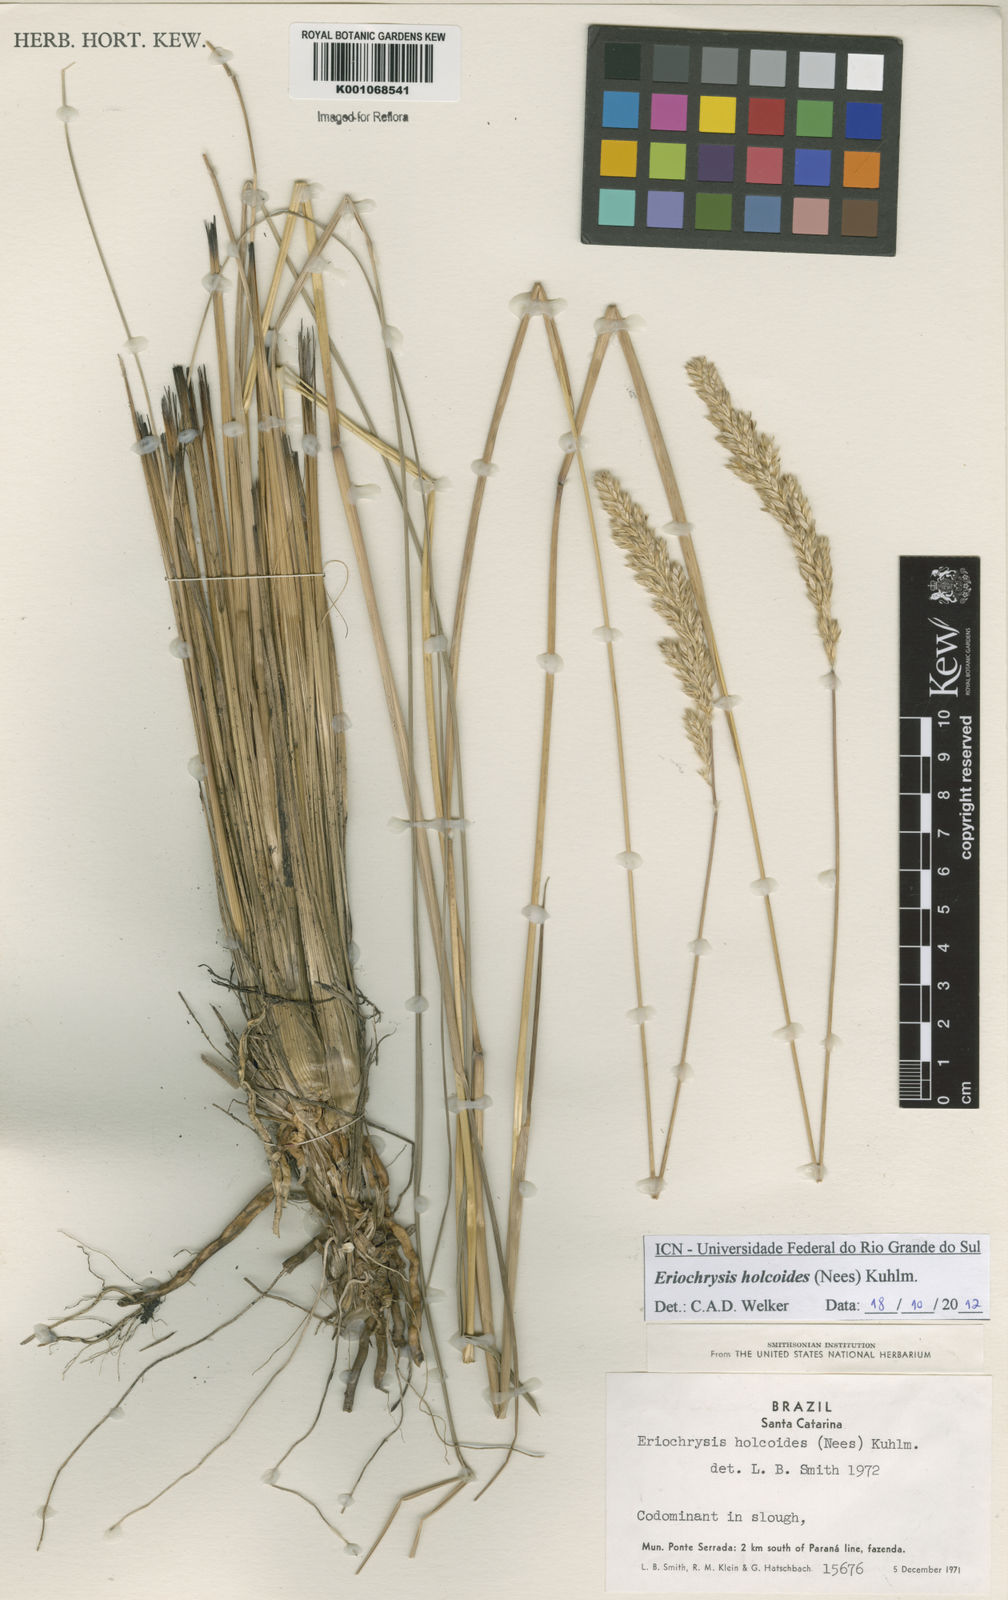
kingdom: Plantae
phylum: Tracheophyta
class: Liliopsida
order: Poales
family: Poaceae
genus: Eriochrysis
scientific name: Eriochrysis holcoides
